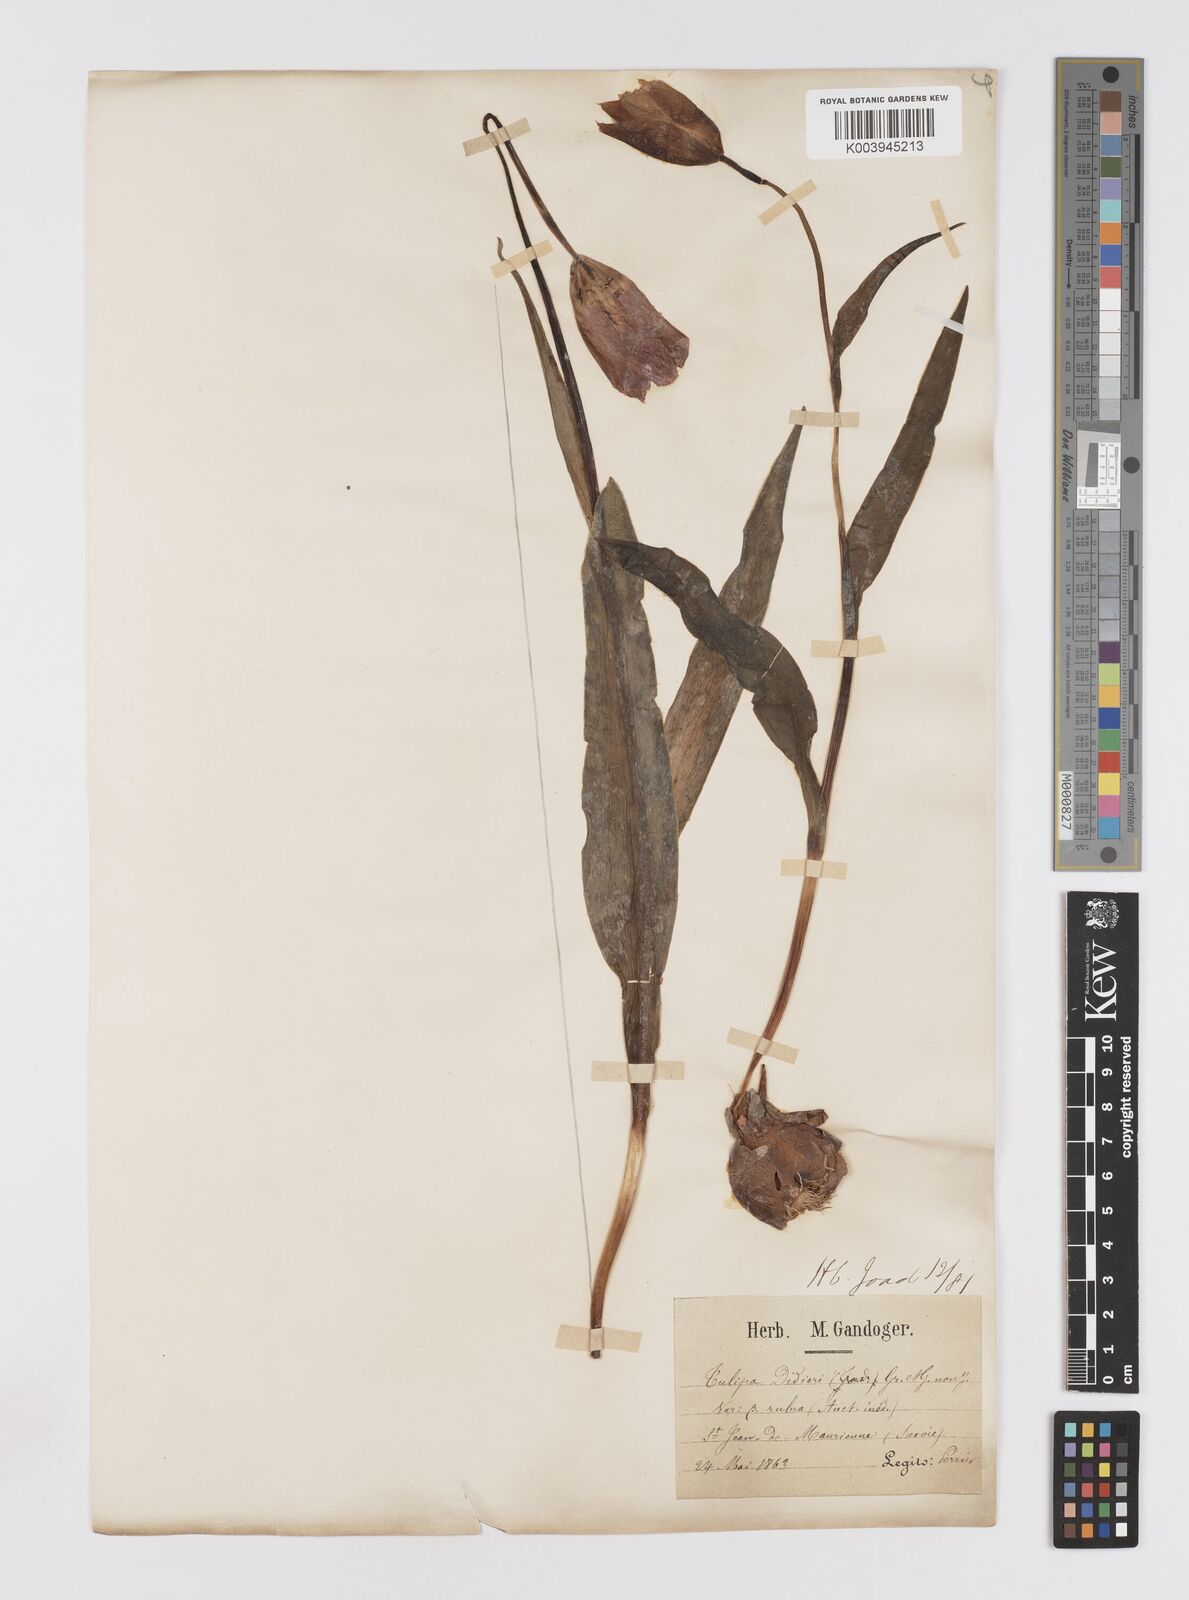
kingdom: Plantae
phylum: Tracheophyta
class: Liliopsida
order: Liliales
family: Liliaceae
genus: Tulipa
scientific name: Tulipa gesneriana
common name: Garden tulip
